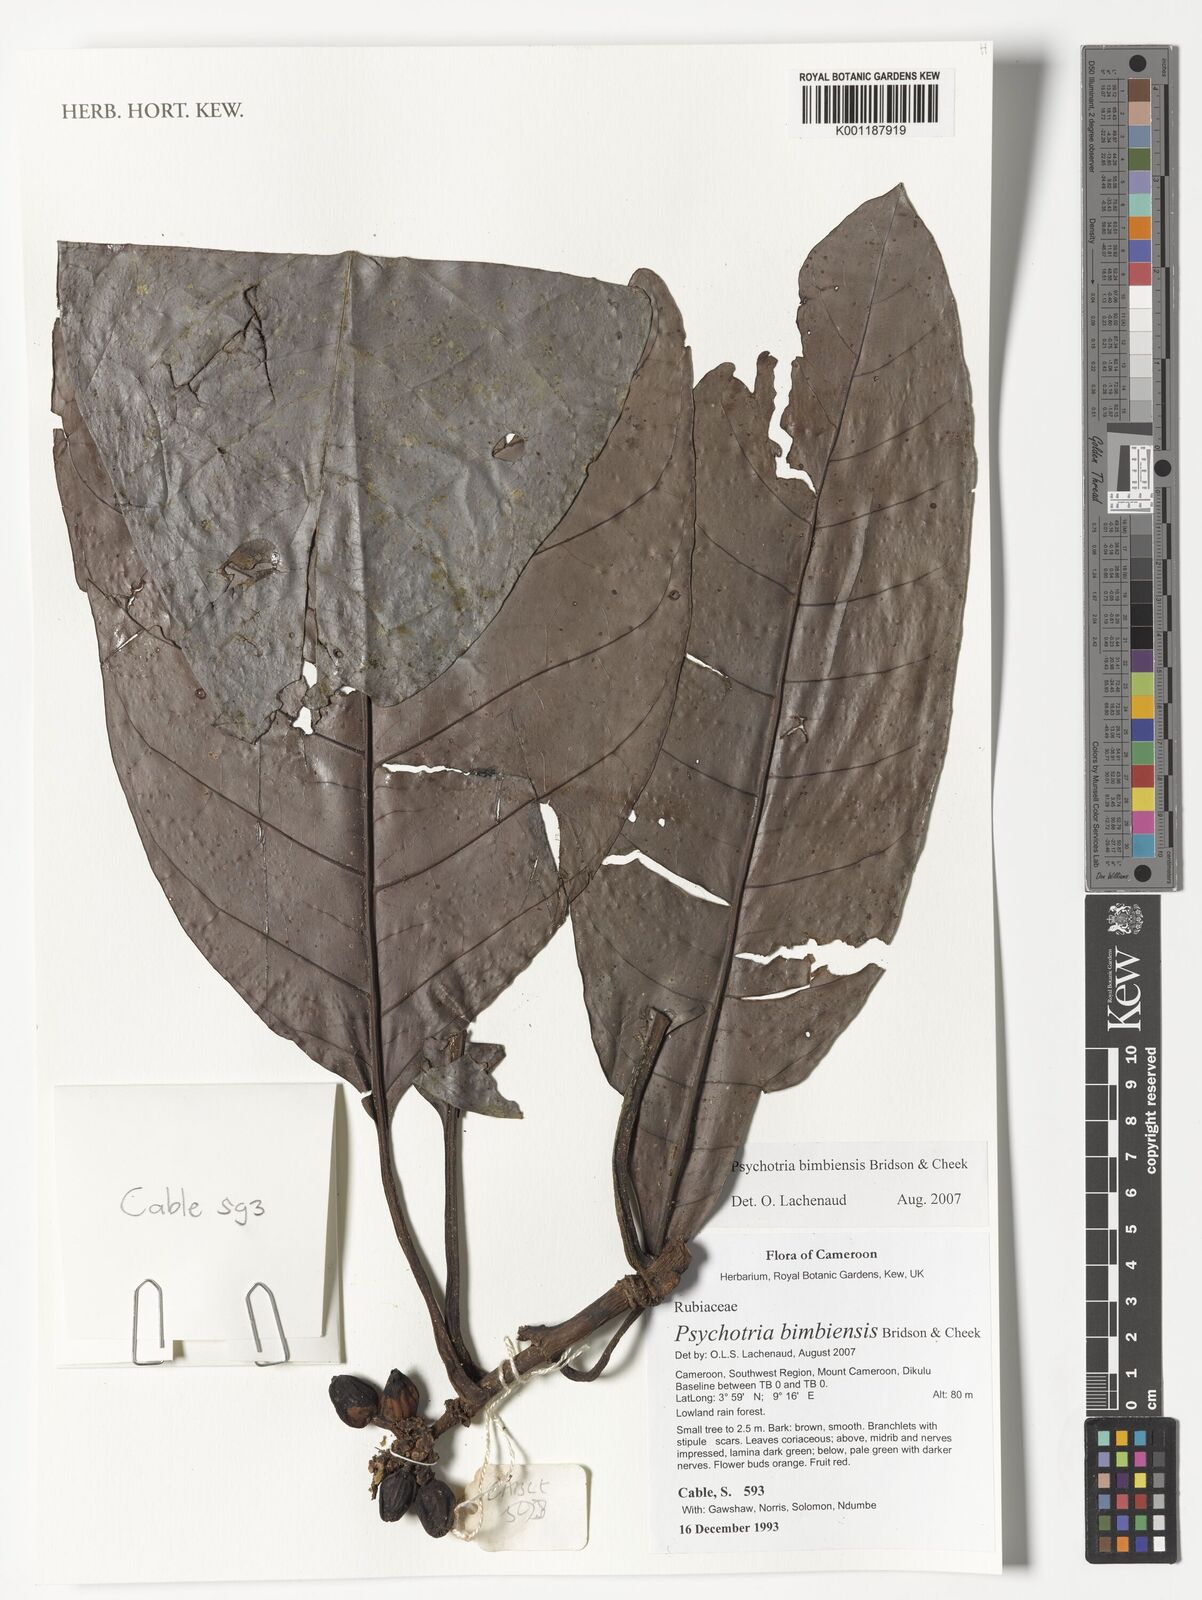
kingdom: Plantae
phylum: Tracheophyta
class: Magnoliopsida
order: Gentianales
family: Rubiaceae
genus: Psychotria
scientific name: Psychotria bimbiensis
